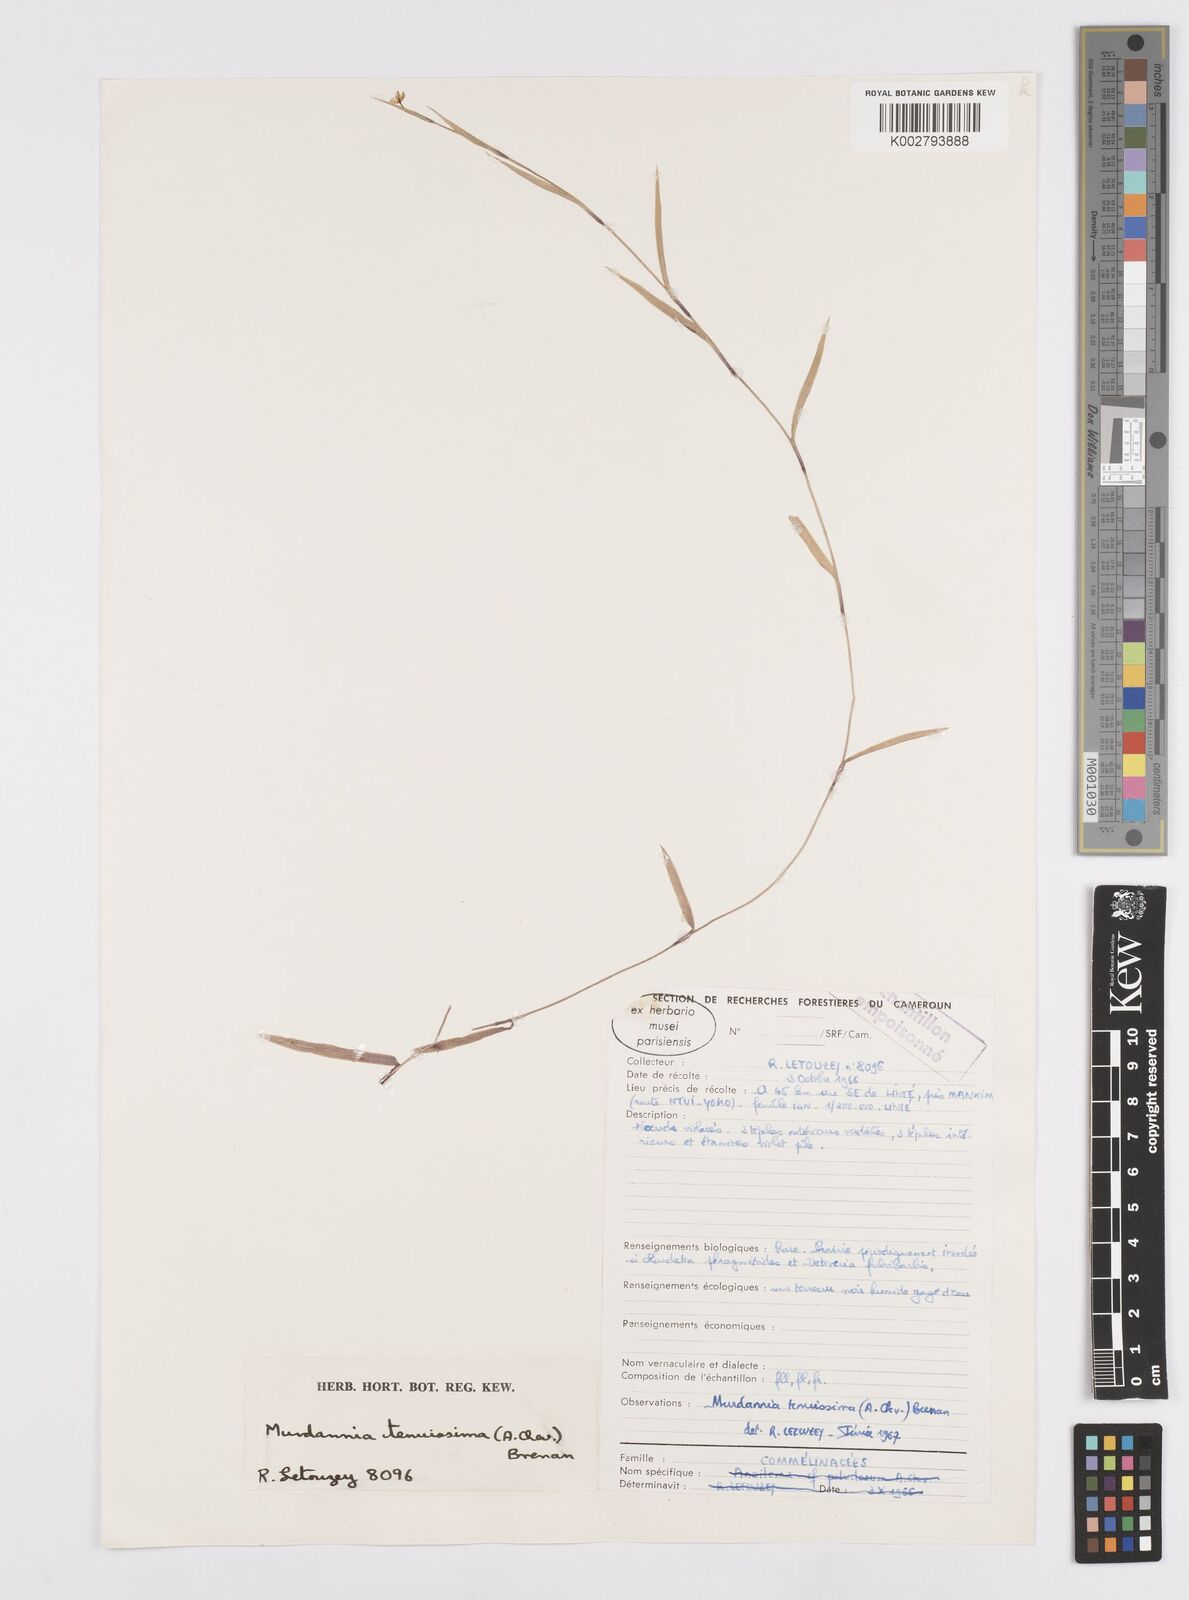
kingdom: Plantae
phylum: Tracheophyta
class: Liliopsida
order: Commelinales
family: Commelinaceae
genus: Murdannia
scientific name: Murdannia tenuissima
